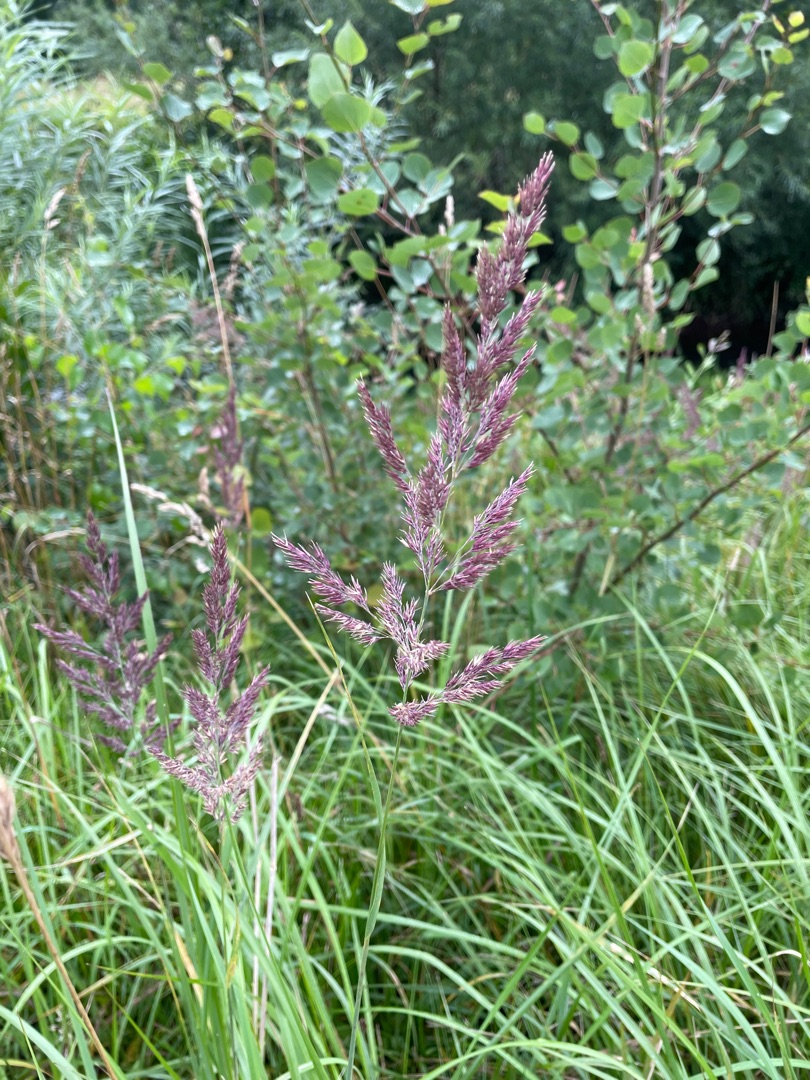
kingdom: Plantae
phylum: Tracheophyta
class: Liliopsida
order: Poales
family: Poaceae
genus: Calamagrostis
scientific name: Calamagrostis epigejos
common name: Bjerg-rørhvene
